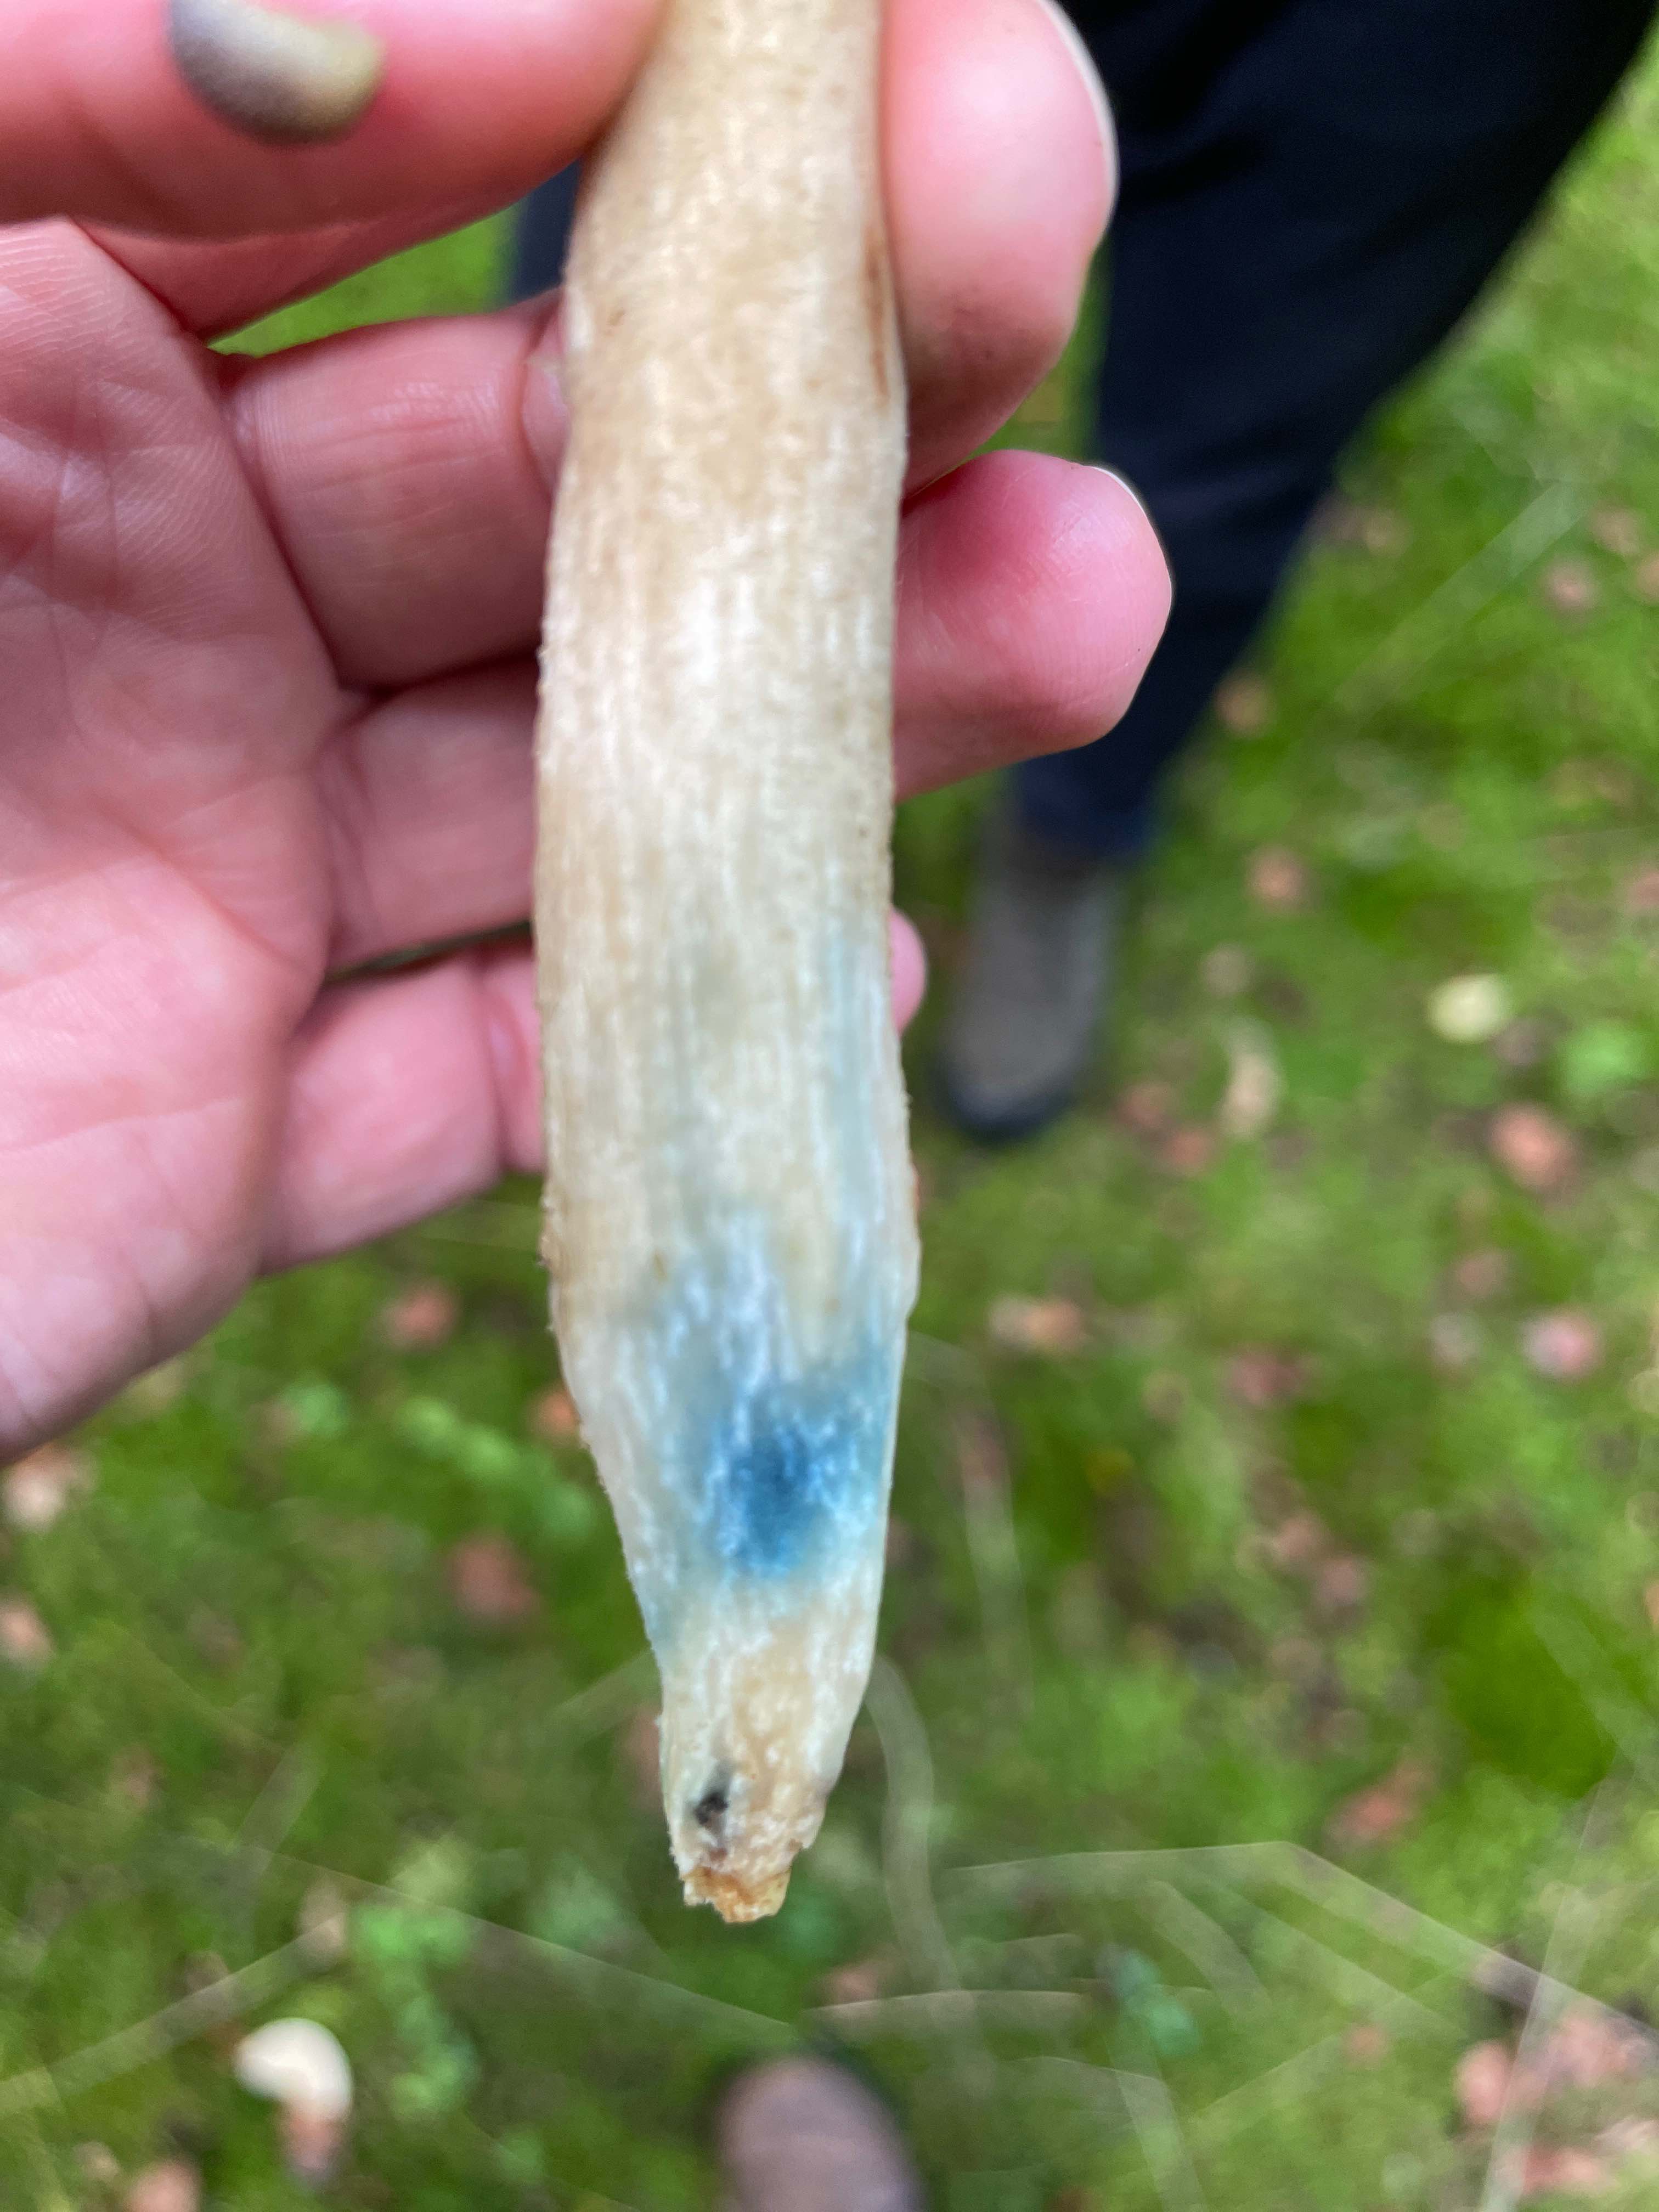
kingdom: Fungi
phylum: Basidiomycota
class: Agaricomycetes
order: Boletales
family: Boletaceae
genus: Leccinum
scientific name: Leccinum scabrum
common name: hvid skælrørhat
